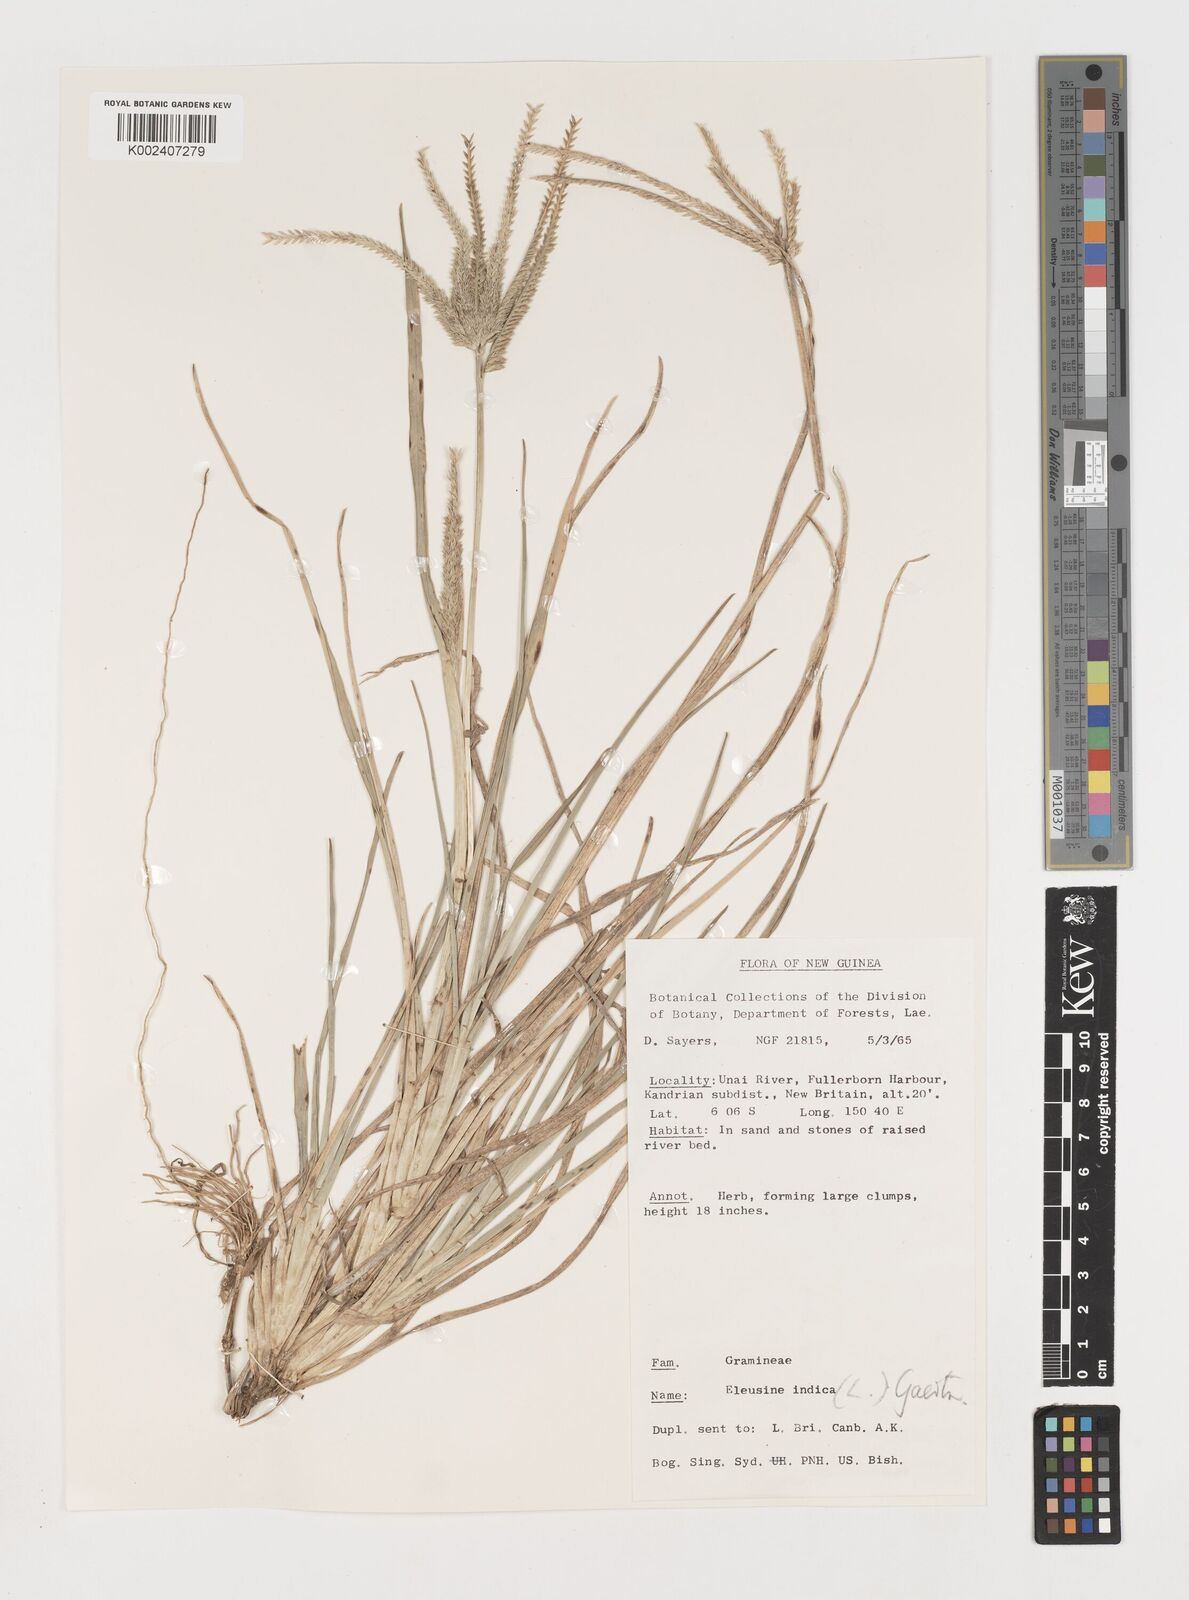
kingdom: Plantae
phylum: Tracheophyta
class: Liliopsida
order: Poales
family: Poaceae
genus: Eleusine
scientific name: Eleusine indica
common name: Yard-grass
